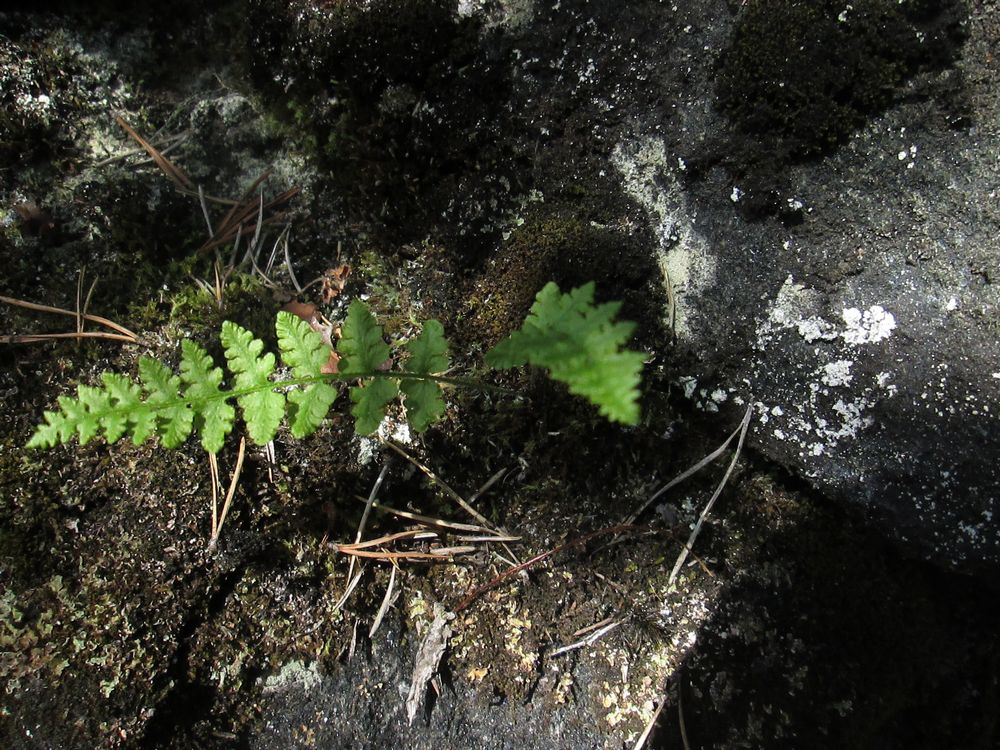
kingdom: Plantae
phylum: Tracheophyta
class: Polypodiopsida
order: Polypodiales
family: Woodsiaceae
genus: Woodsia
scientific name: Woodsia alpina
